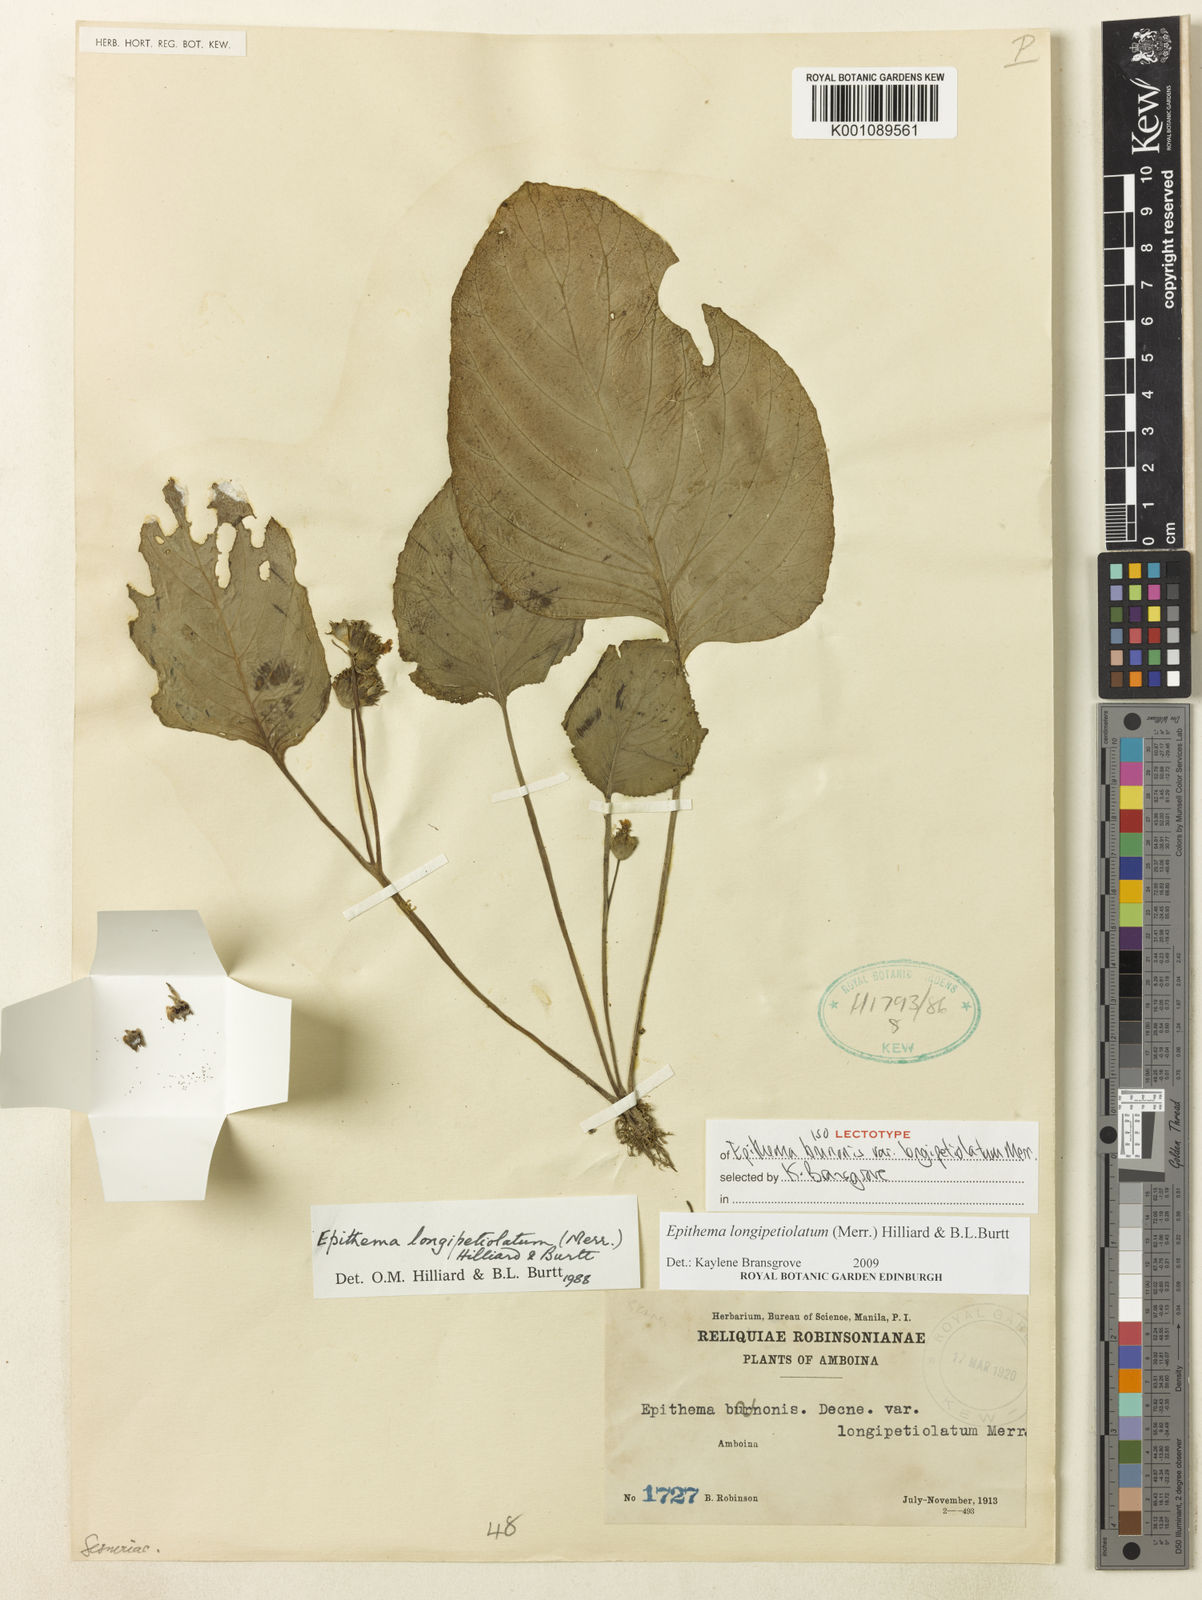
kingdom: Plantae
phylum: Tracheophyta
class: Magnoliopsida
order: Lamiales
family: Gesneriaceae
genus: Epithema
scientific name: Epithema longipetiolatum
